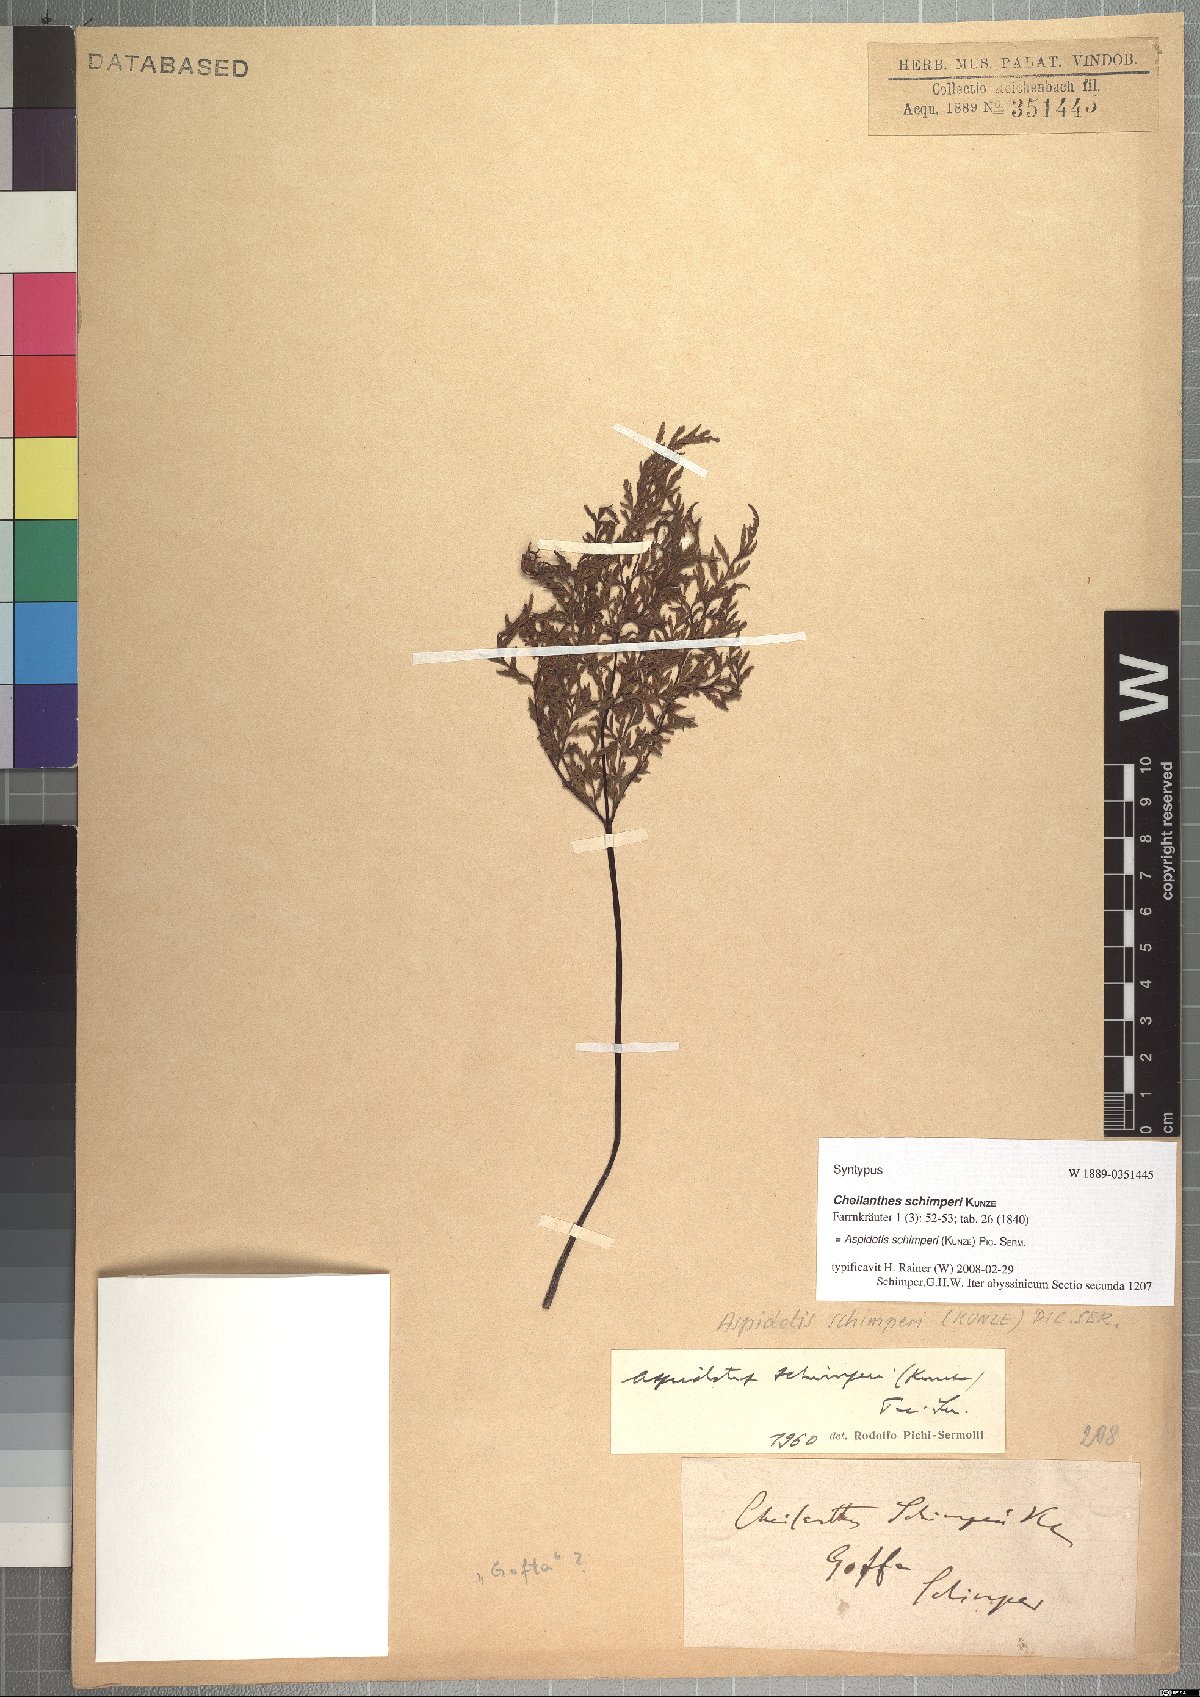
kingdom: Plantae
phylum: Tracheophyta
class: Polypodiopsida
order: Polypodiales
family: Pteridaceae
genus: Cheilanthes
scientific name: Cheilanthes schimperi
